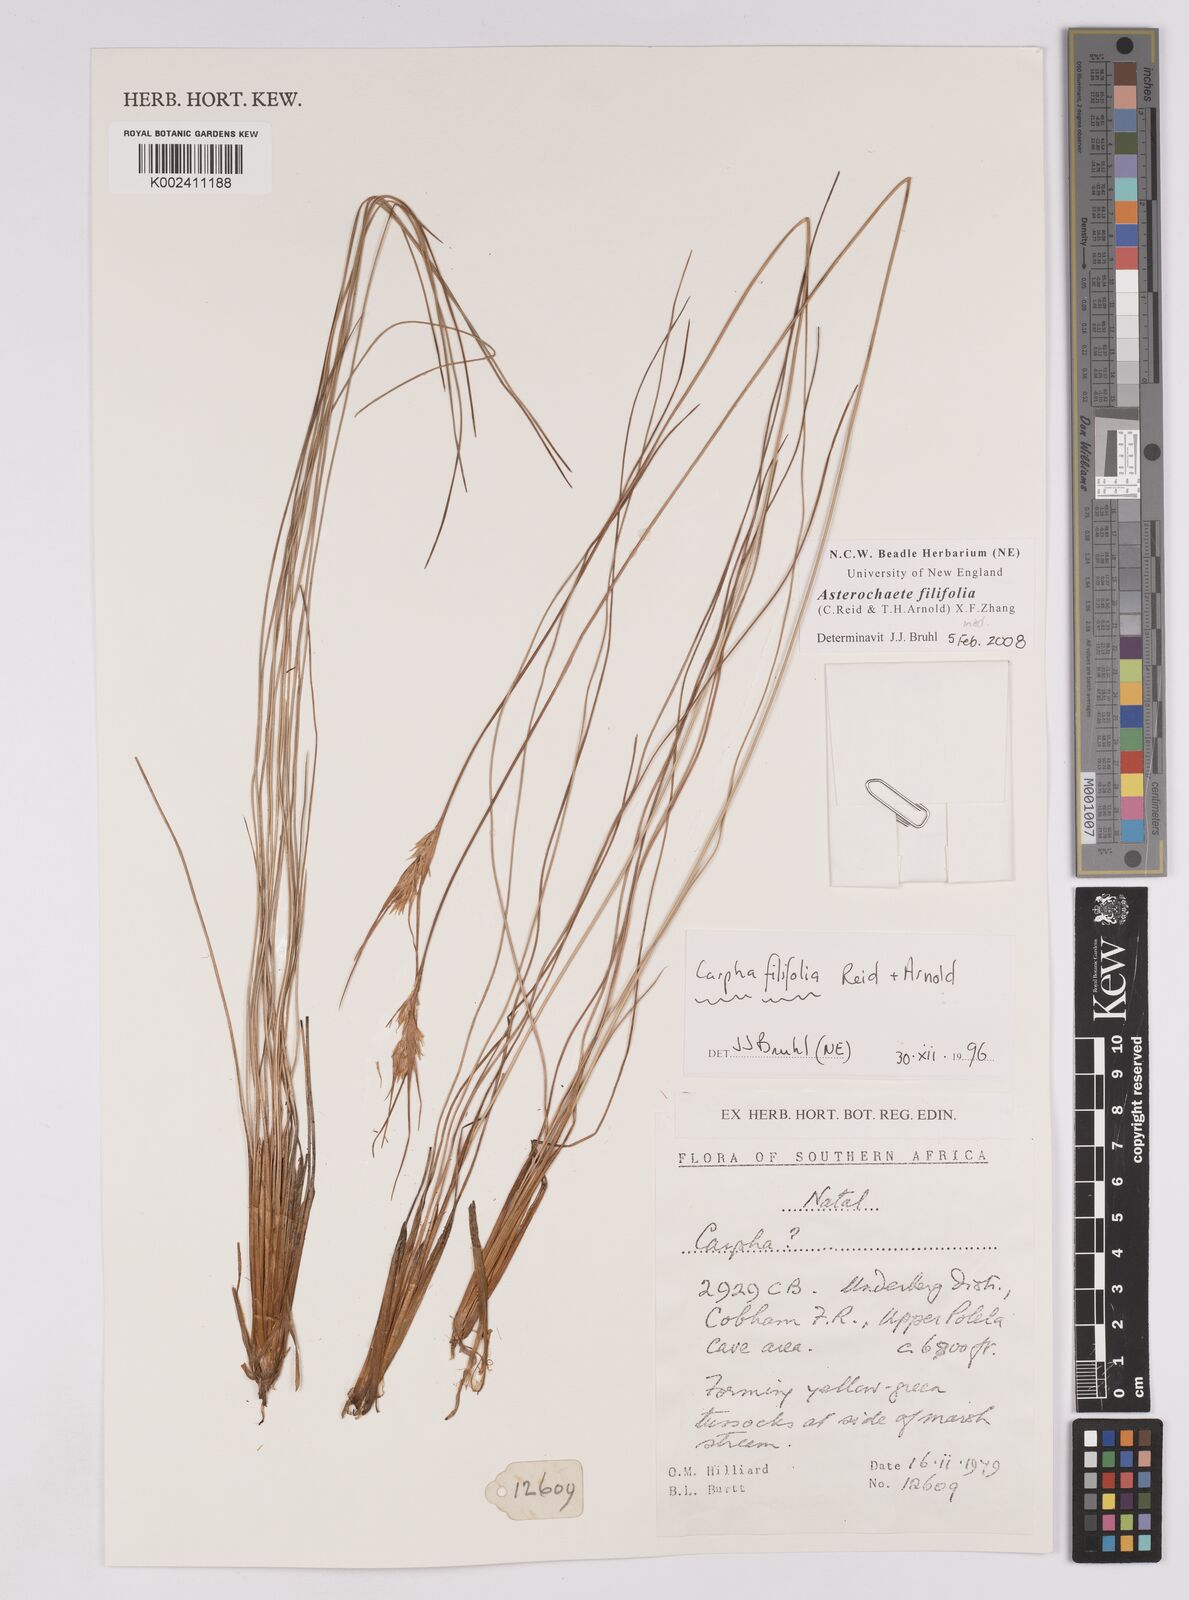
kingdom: Plantae
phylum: Tracheophyta
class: Liliopsida
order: Poales
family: Cyperaceae
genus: Carpha
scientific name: Carpha filifolia
